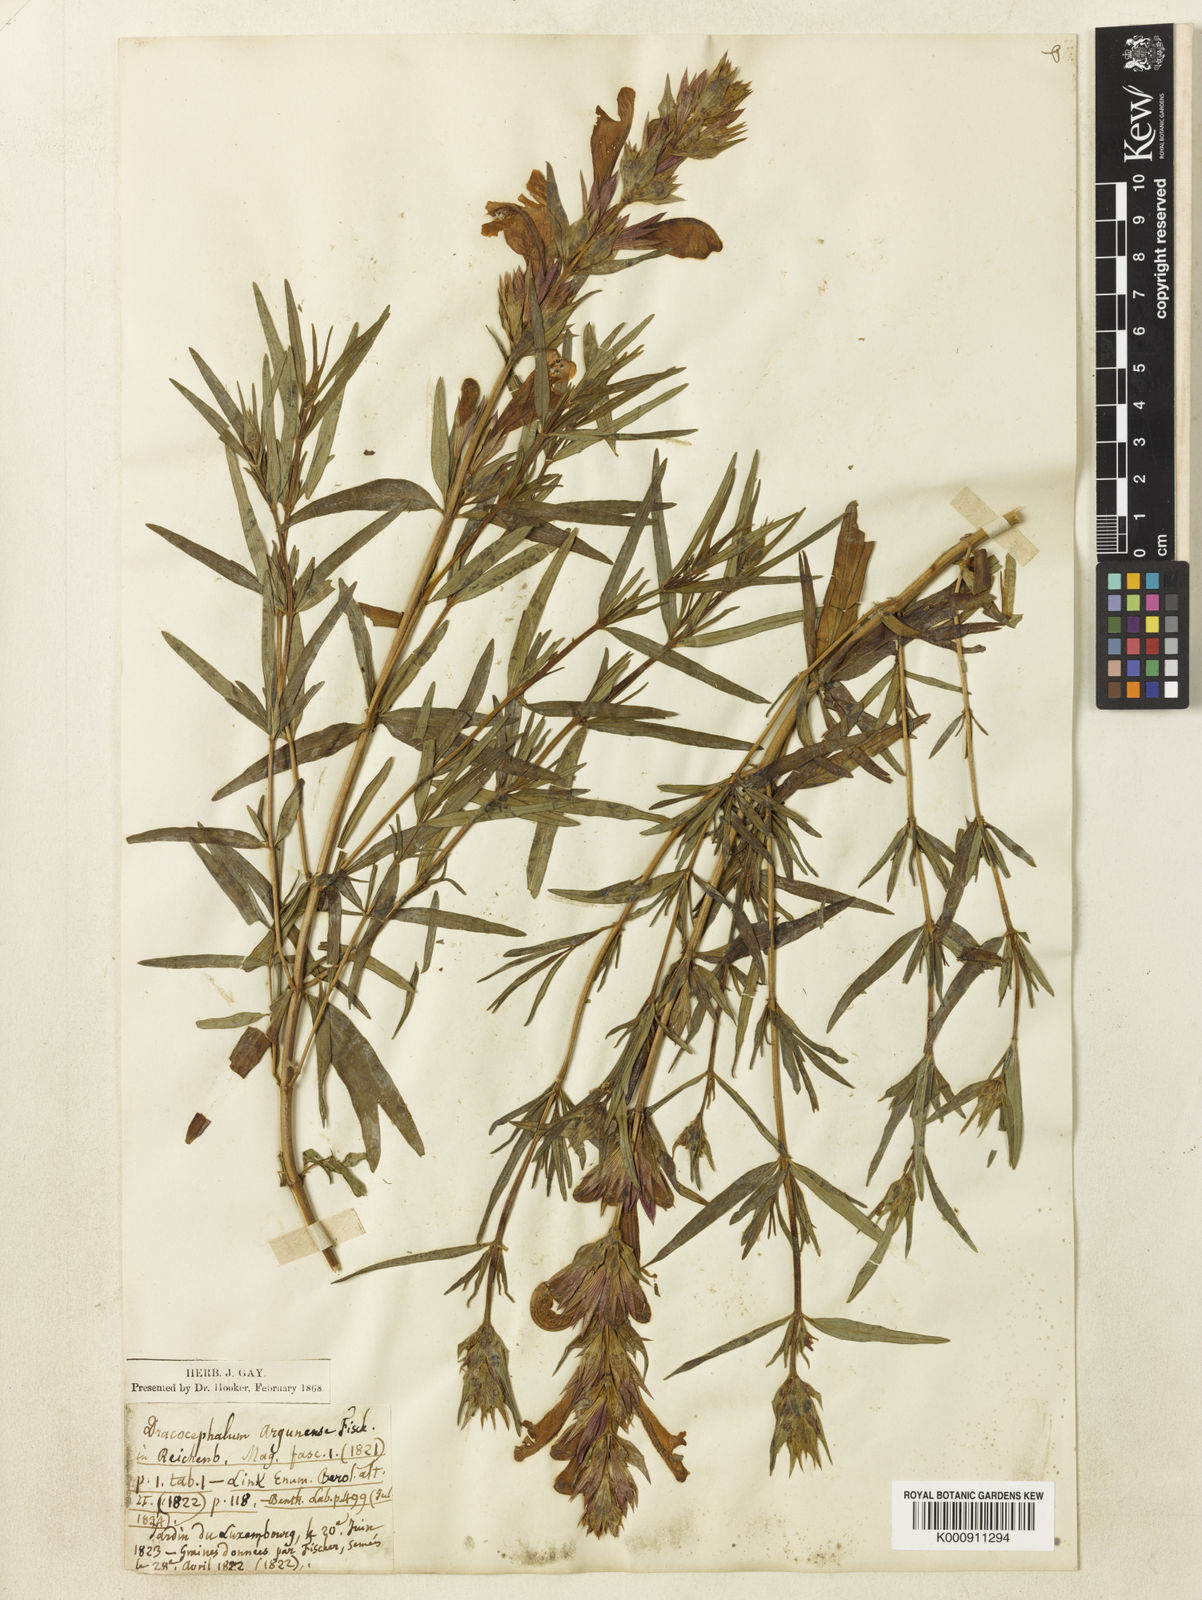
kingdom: Plantae
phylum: Tracheophyta
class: Magnoliopsida
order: Lamiales
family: Lamiaceae
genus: Dracocephalum
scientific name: Dracocephalum argunense
